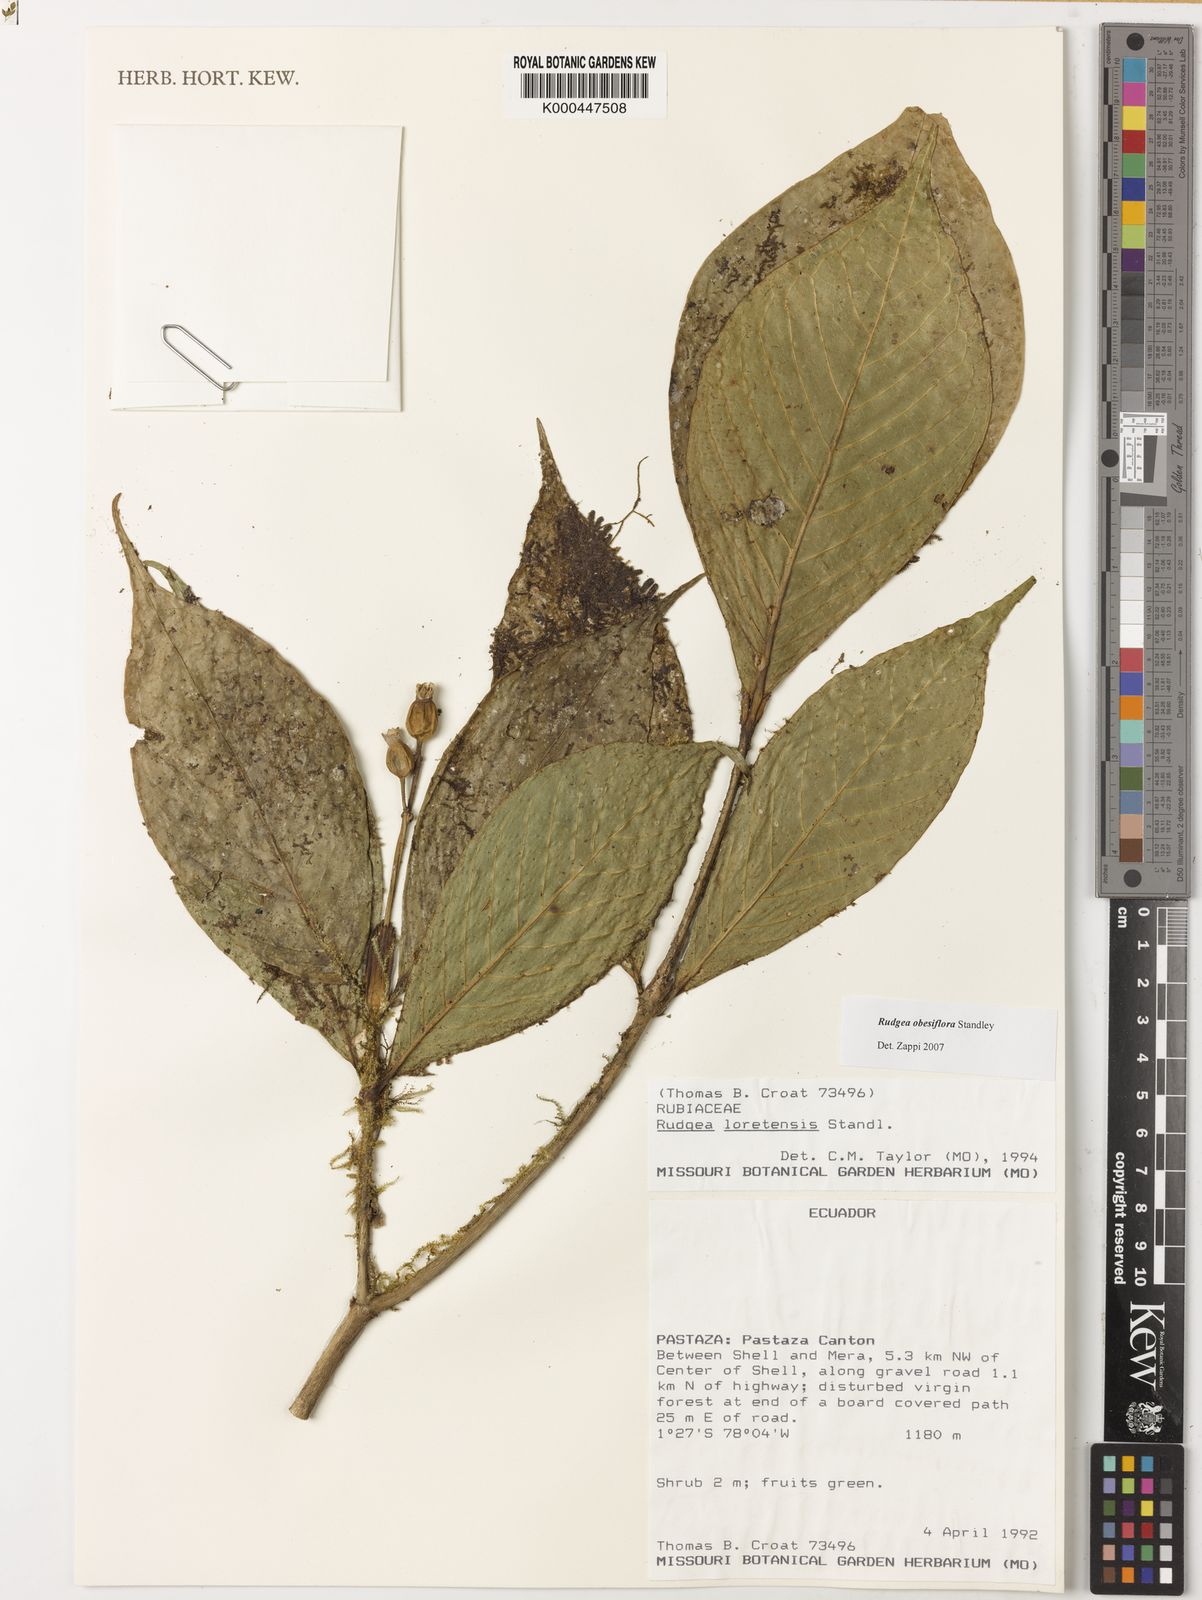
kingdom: Plantae
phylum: Tracheophyta
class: Magnoliopsida
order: Gentianales
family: Rubiaceae
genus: Rudgea
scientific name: Rudgea obesiflora
